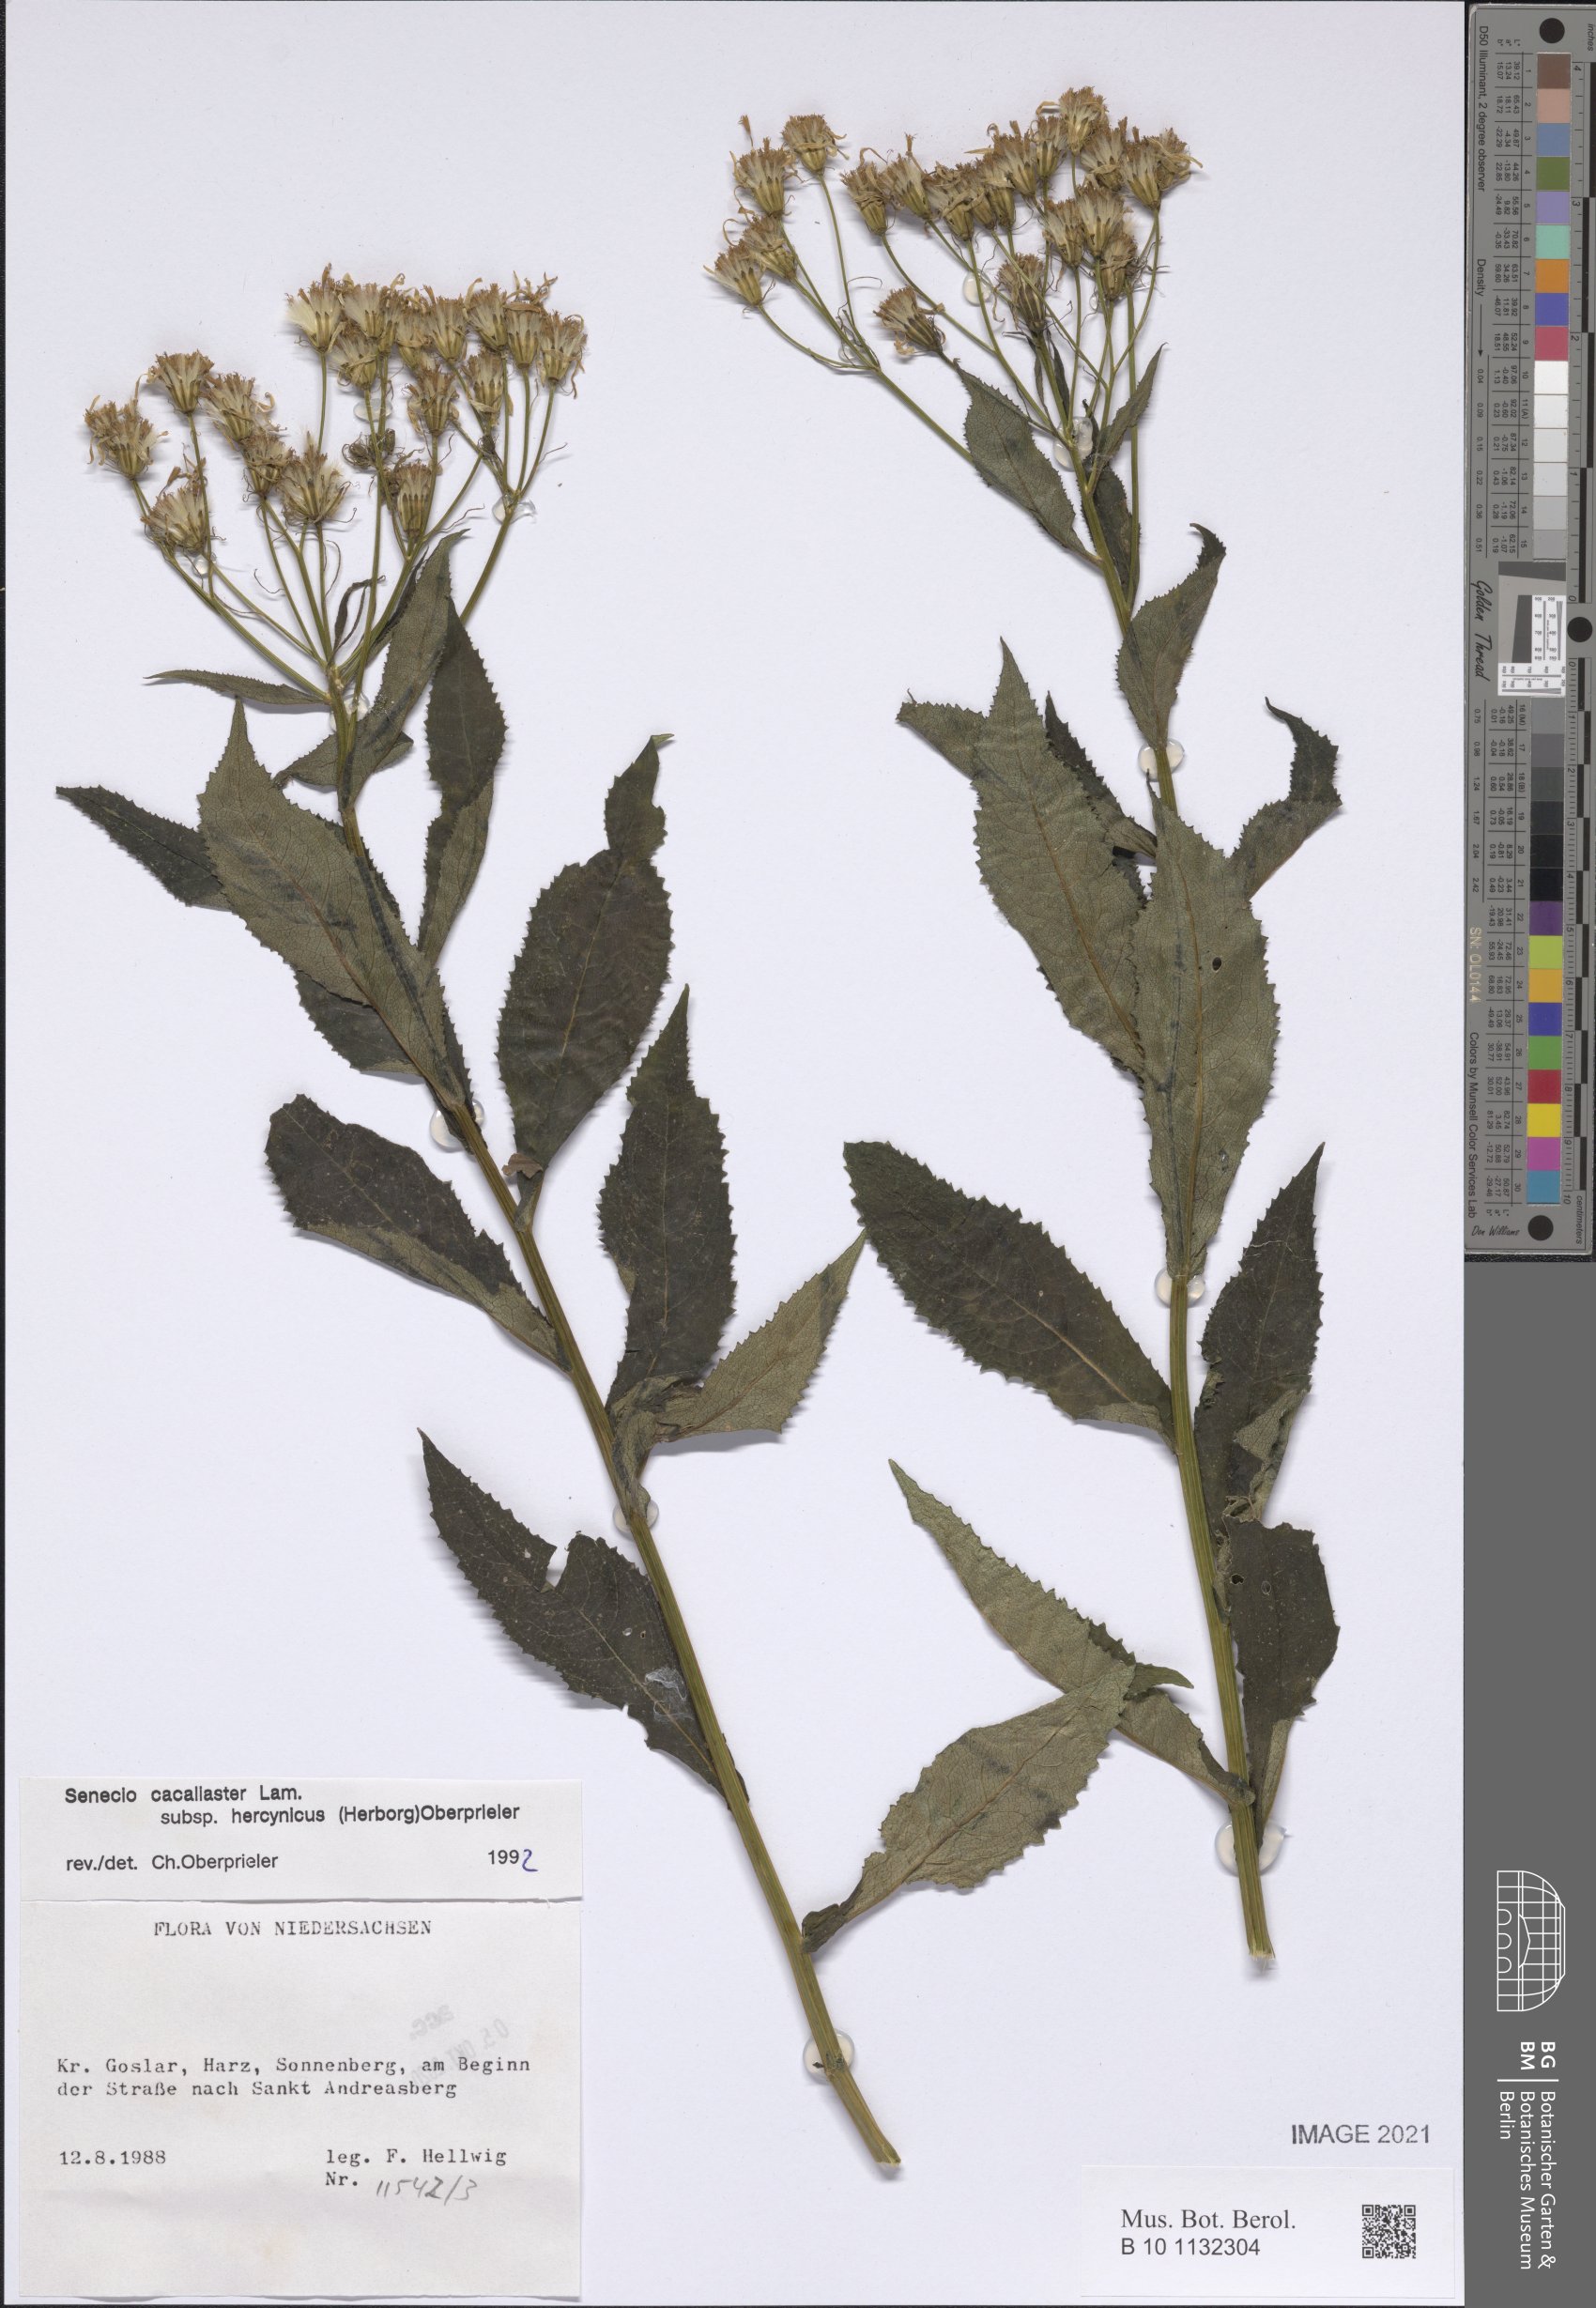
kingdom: Plantae
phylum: Tracheophyta
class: Magnoliopsida
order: Asterales
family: Asteraceae
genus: Senecio
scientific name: Senecio hercynicus
